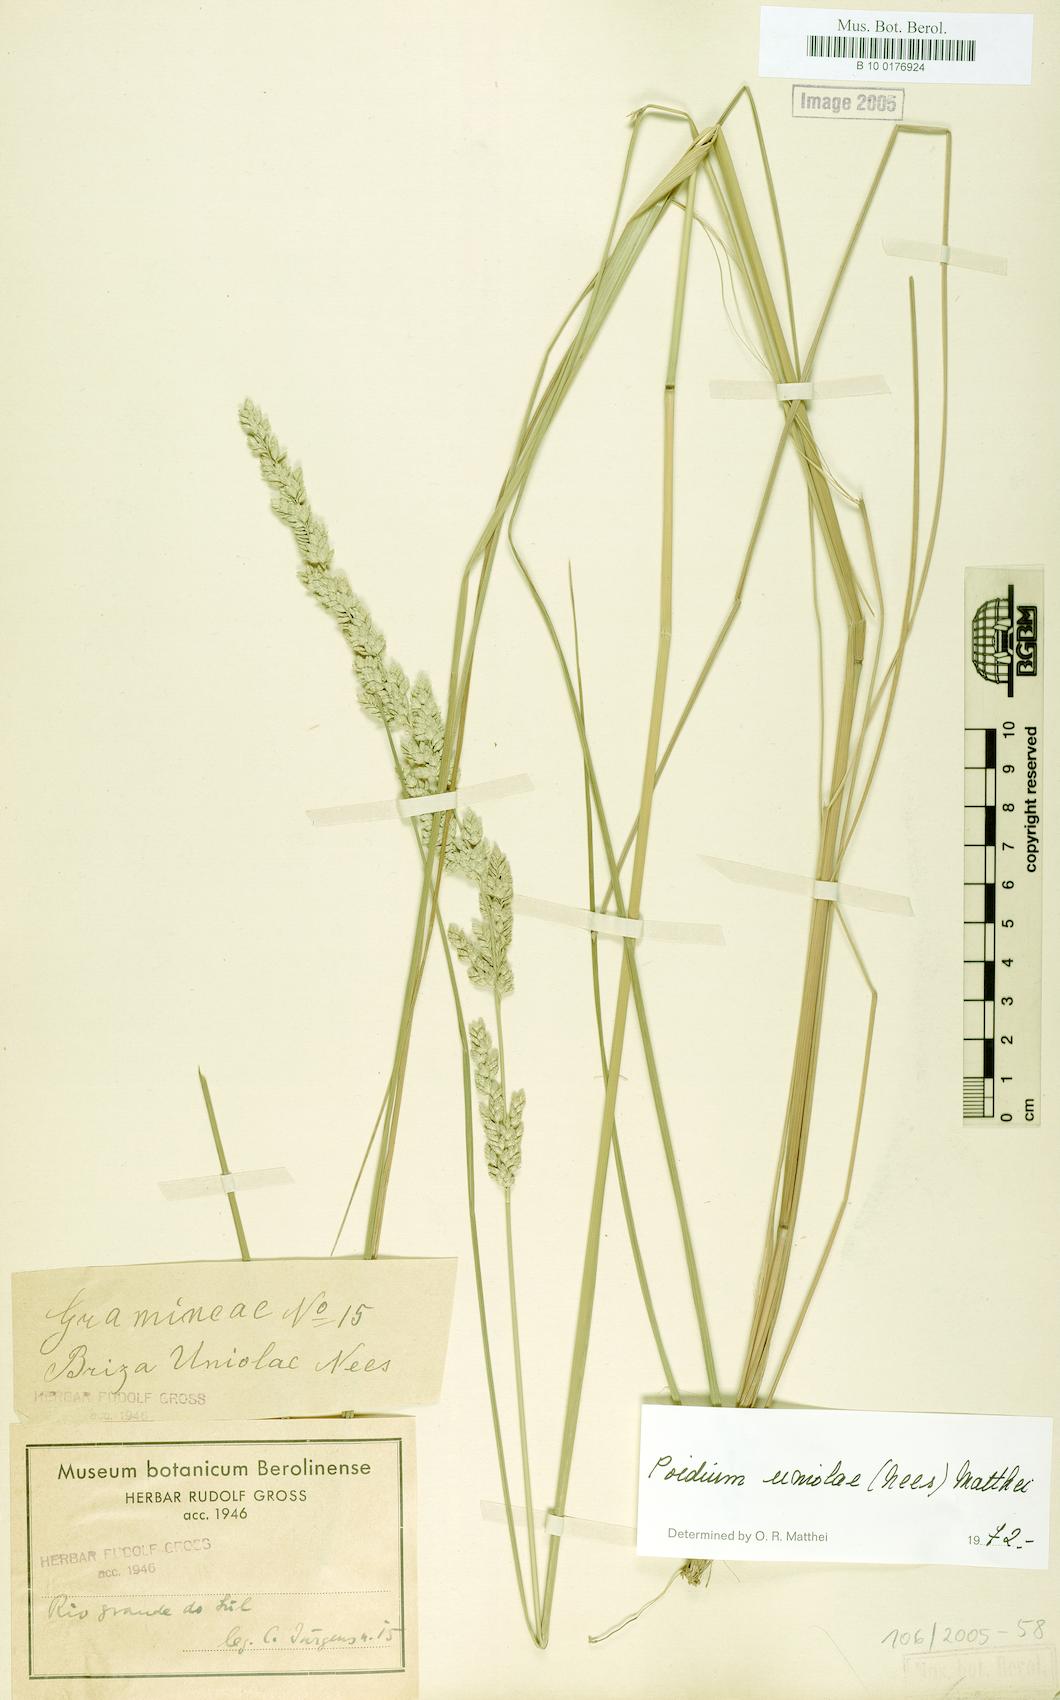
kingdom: Plantae
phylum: Tracheophyta
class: Liliopsida
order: Poales
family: Poaceae
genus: Poidium
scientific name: Poidium uniolae
